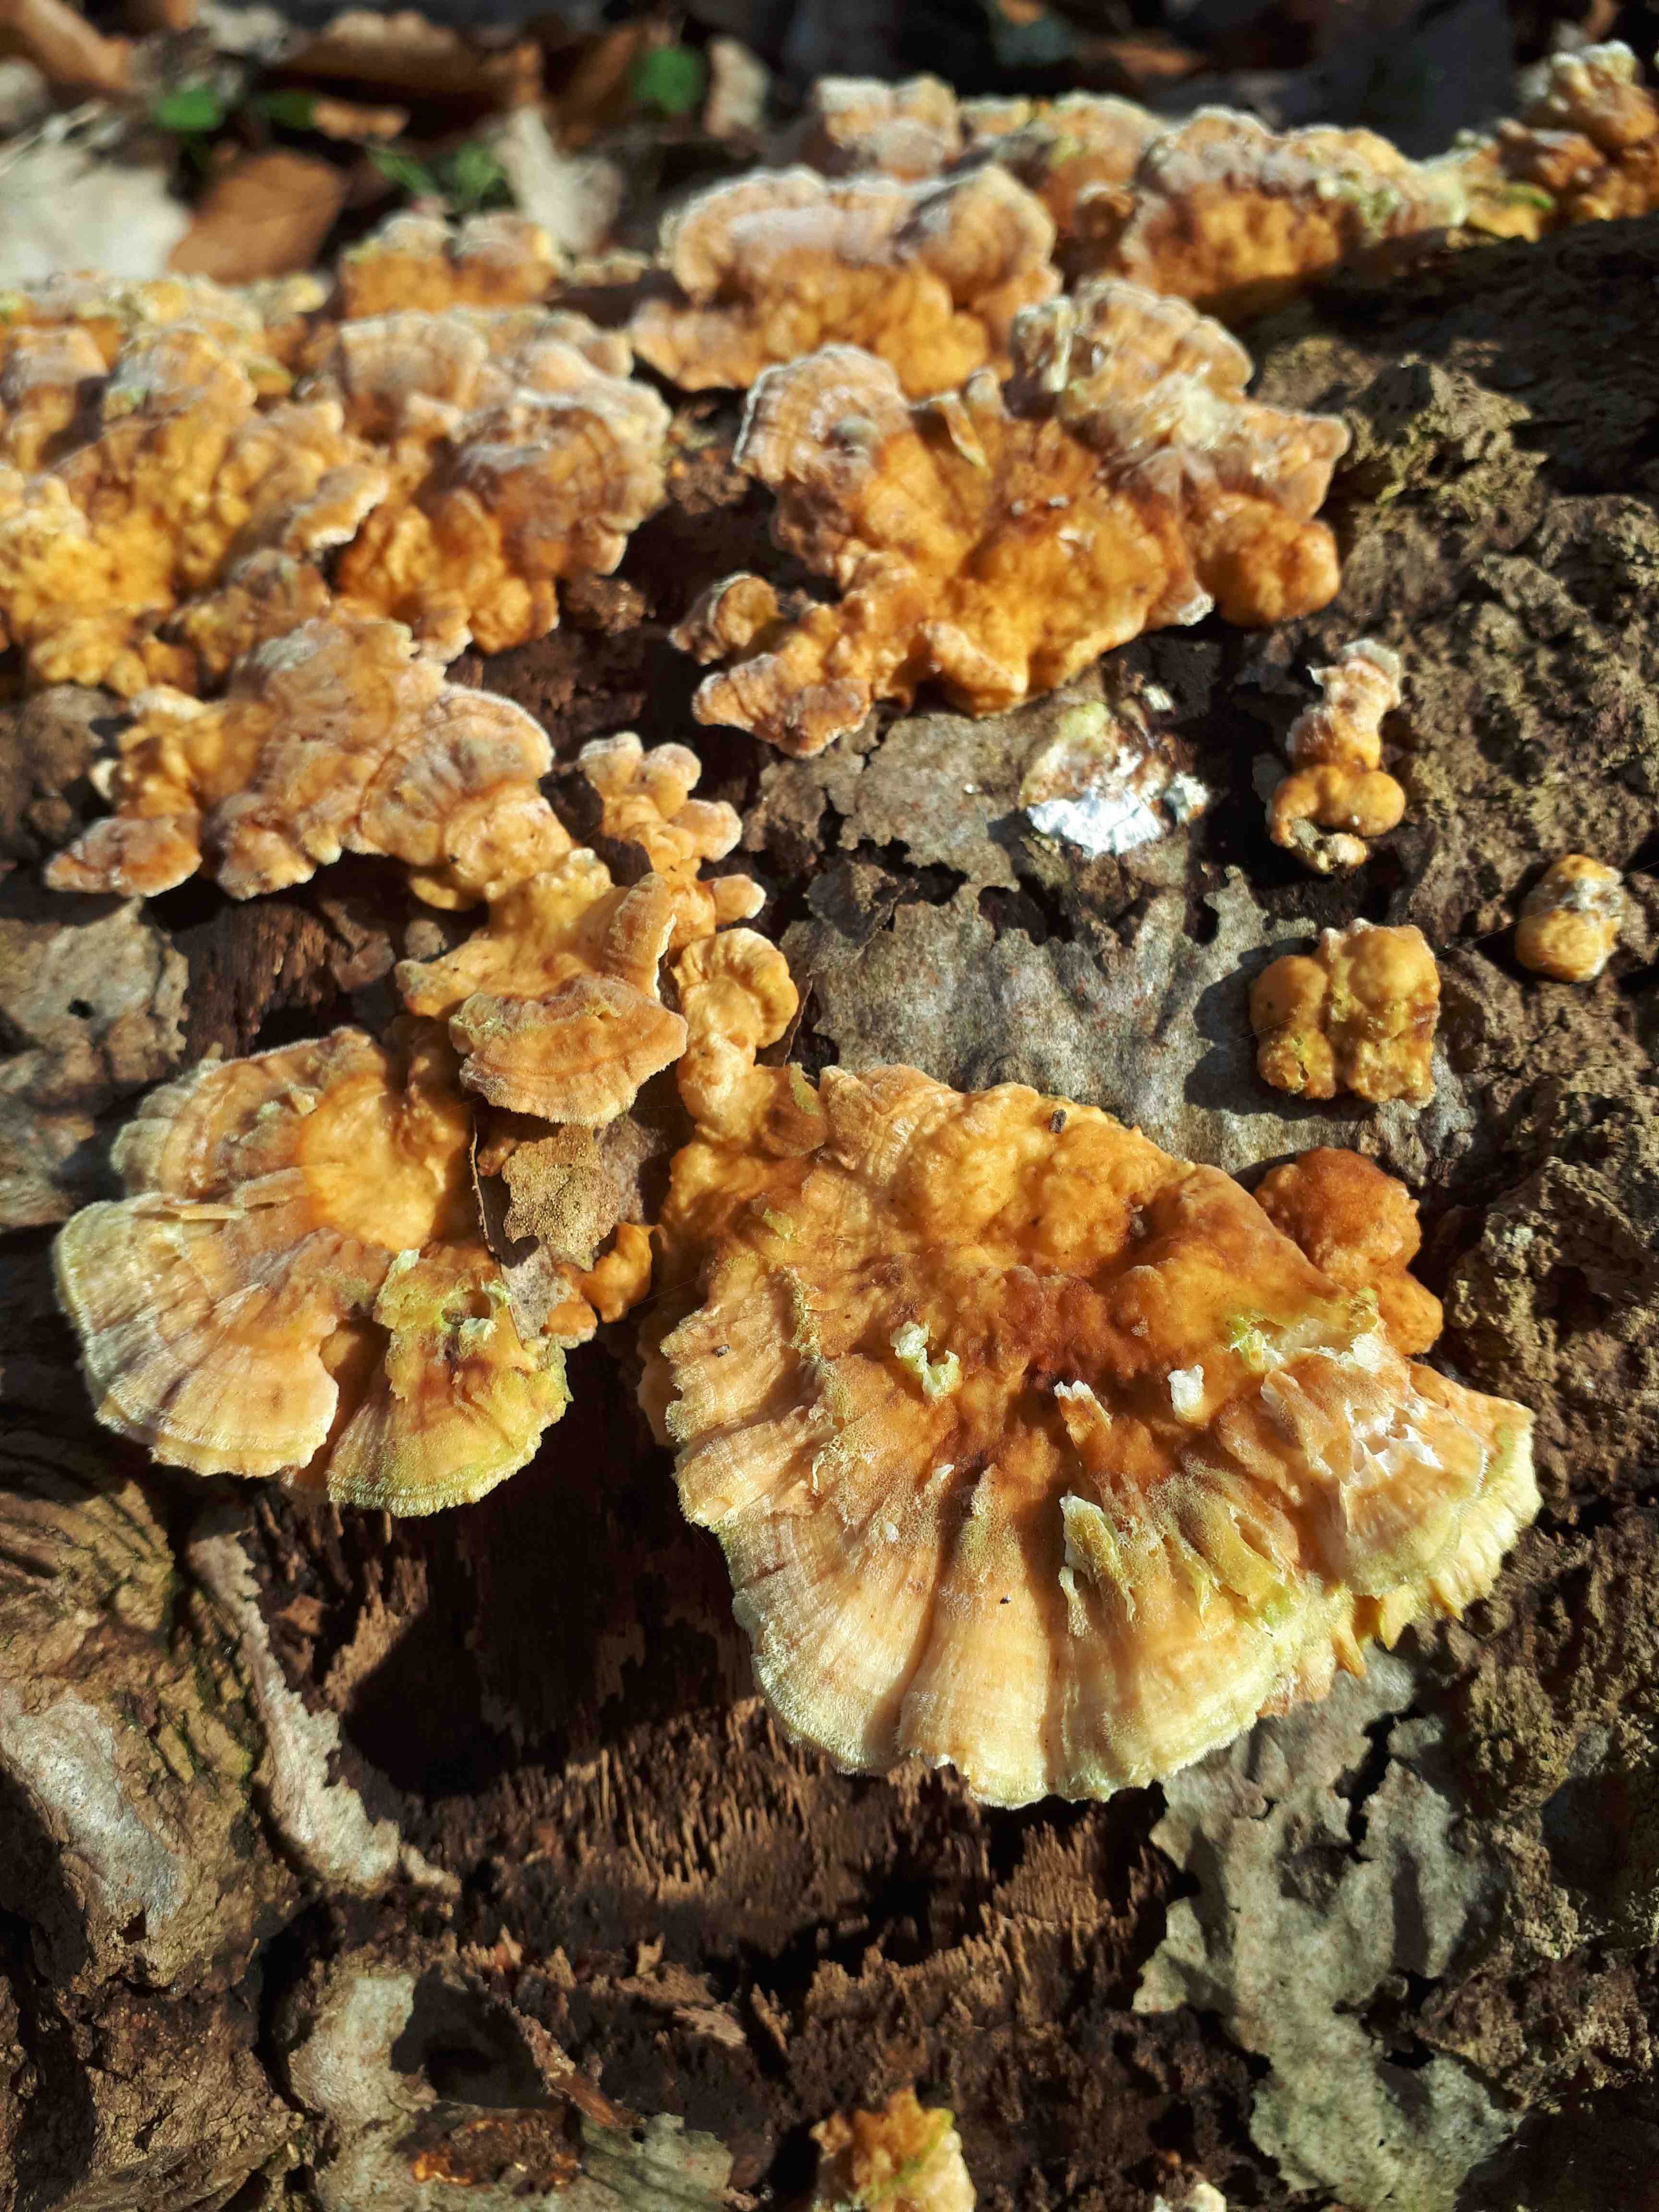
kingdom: Fungi
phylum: Basidiomycota
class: Agaricomycetes
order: Polyporales
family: Polyporaceae
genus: Trametes
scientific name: Trametes
